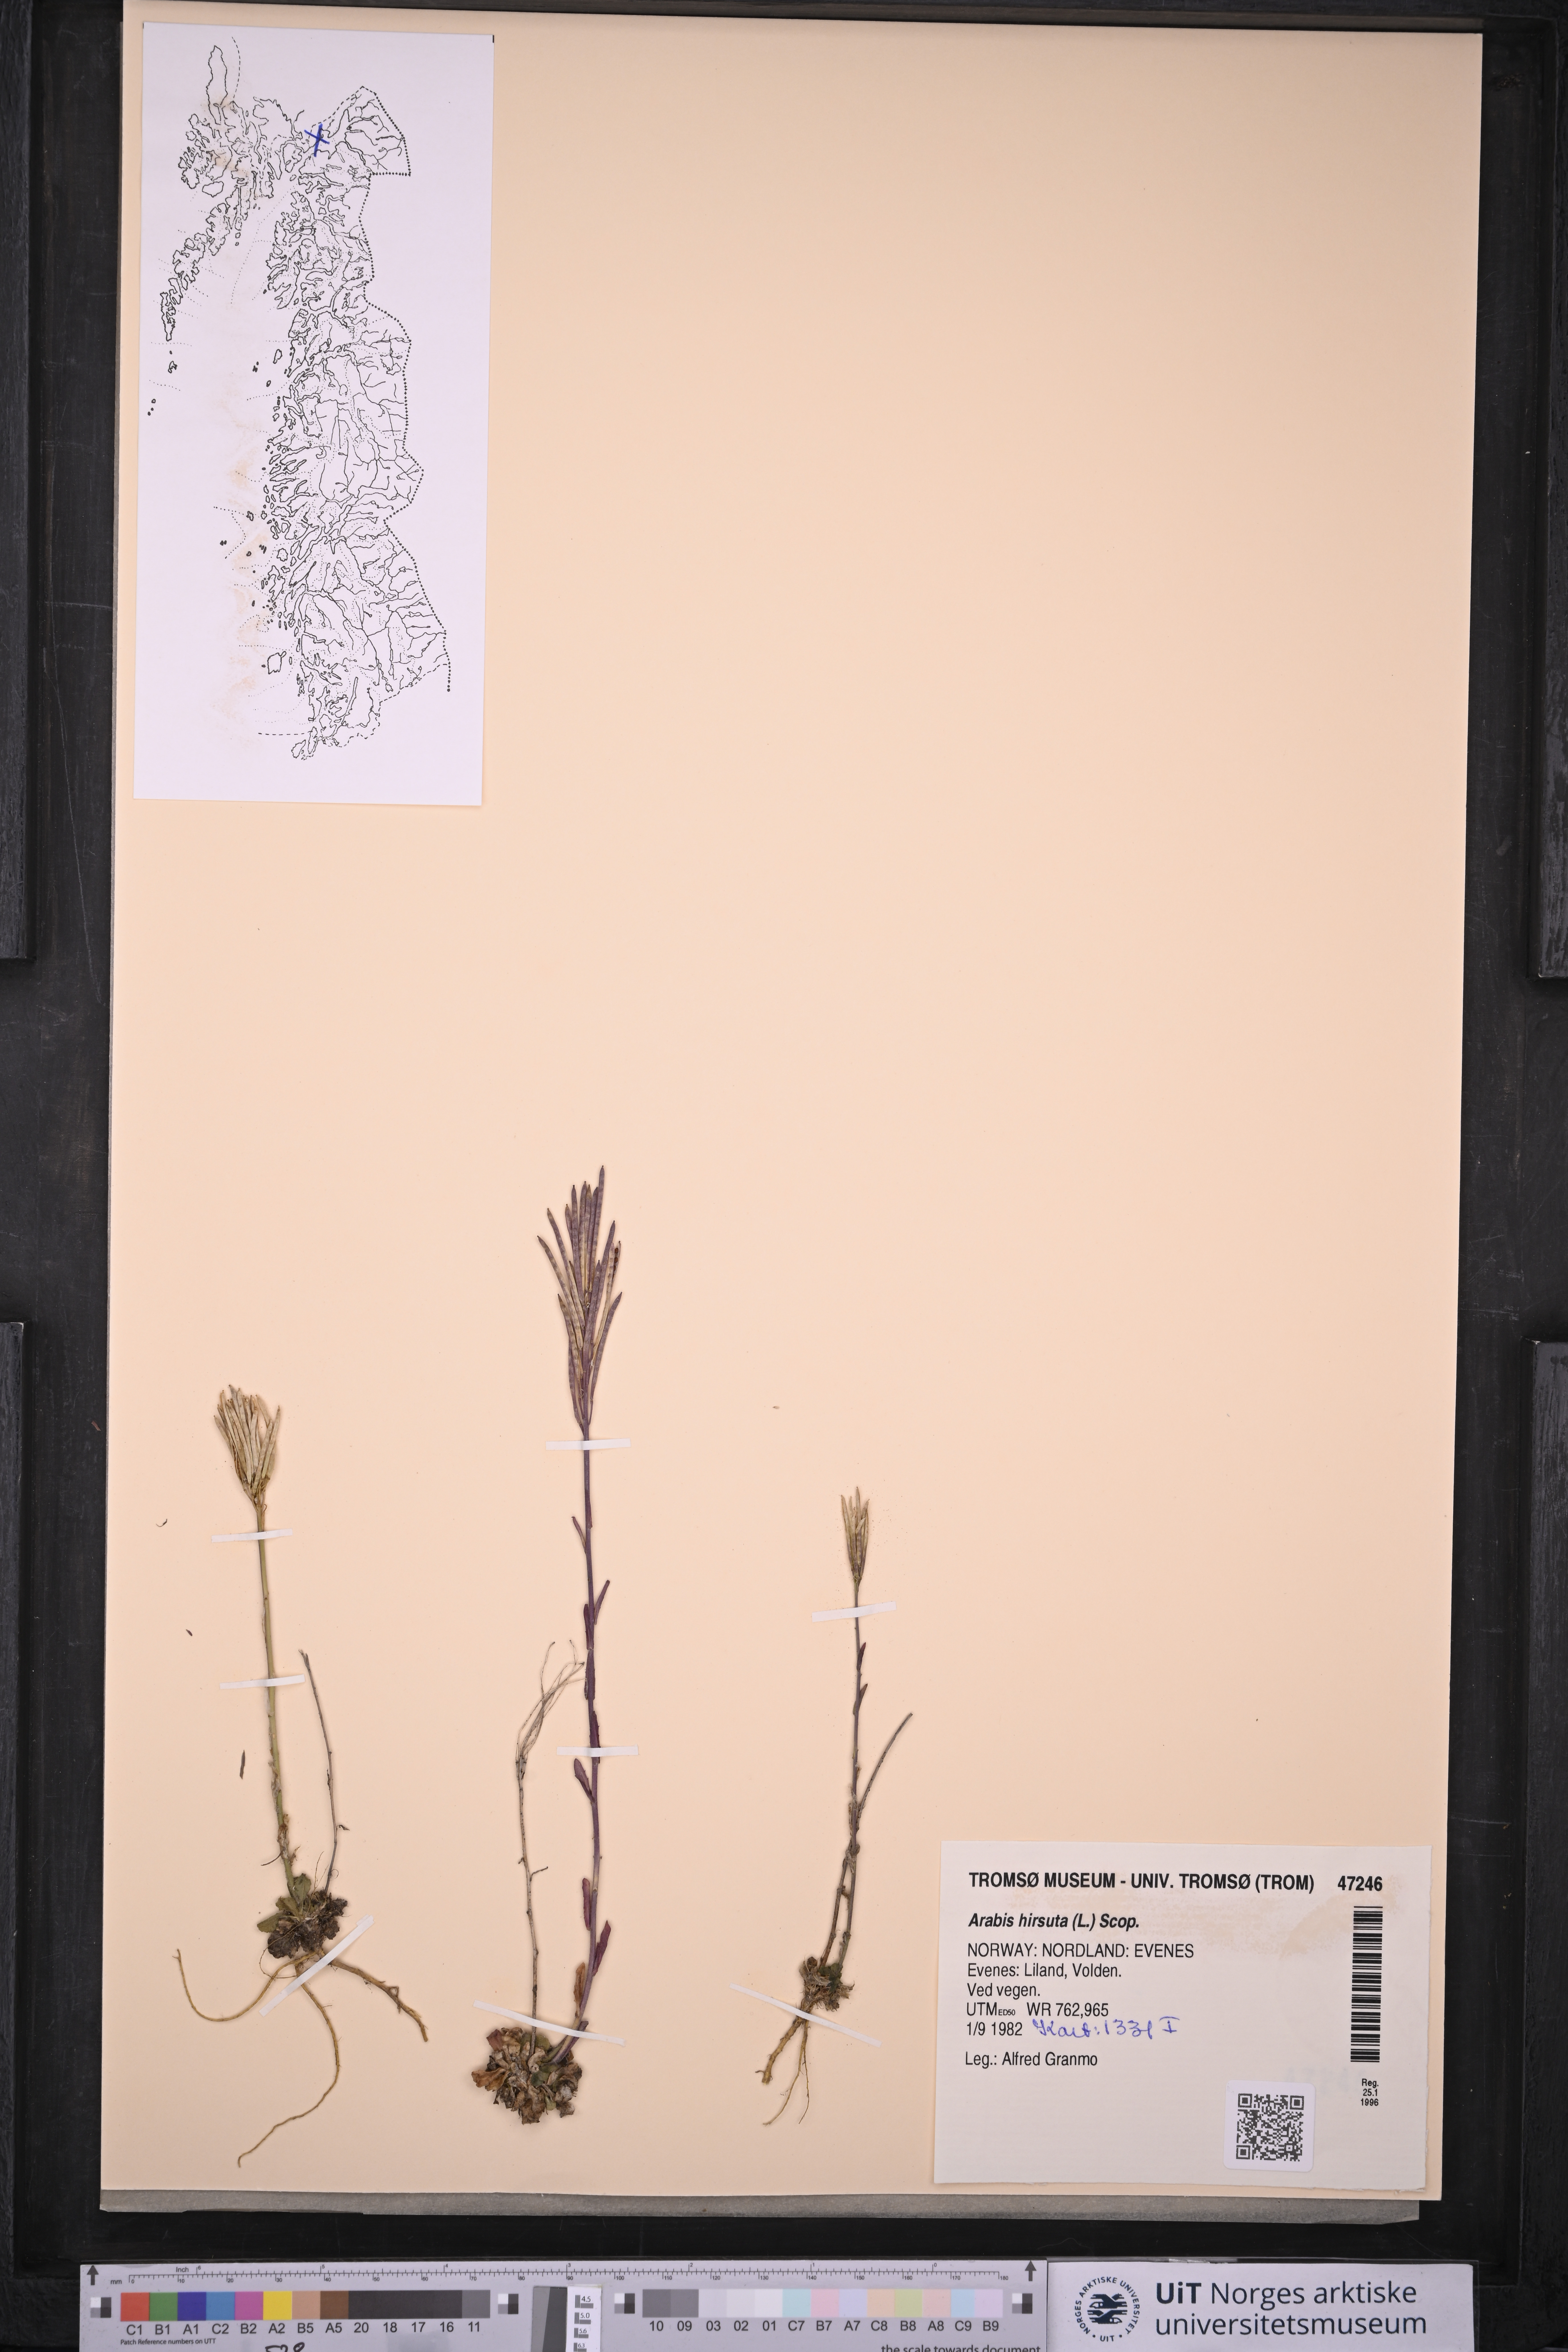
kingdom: Plantae
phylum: Tracheophyta
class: Magnoliopsida
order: Brassicales
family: Brassicaceae
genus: Arabis
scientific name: Arabis hirsuta
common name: Hairy rock-cress
